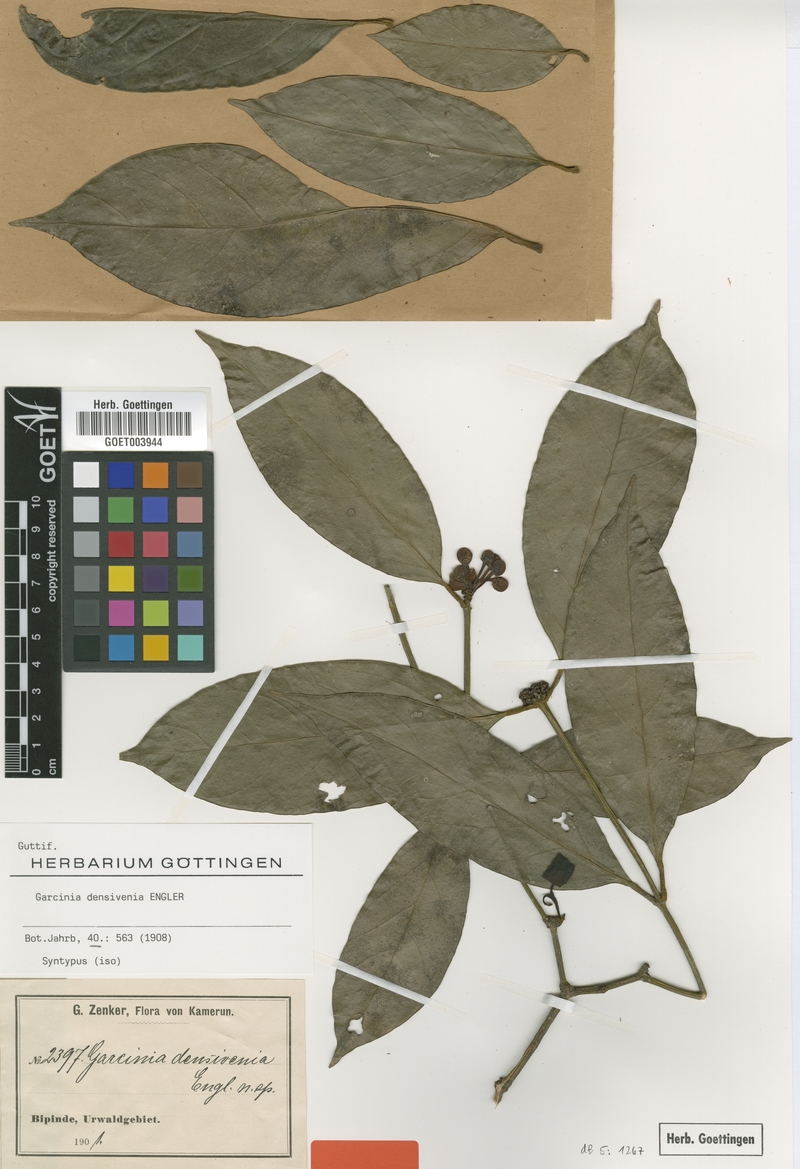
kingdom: Plantae
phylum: Tracheophyta
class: Magnoliopsida
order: Malpighiales
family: Clusiaceae
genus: Garcinia
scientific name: Garcinia densivenia
